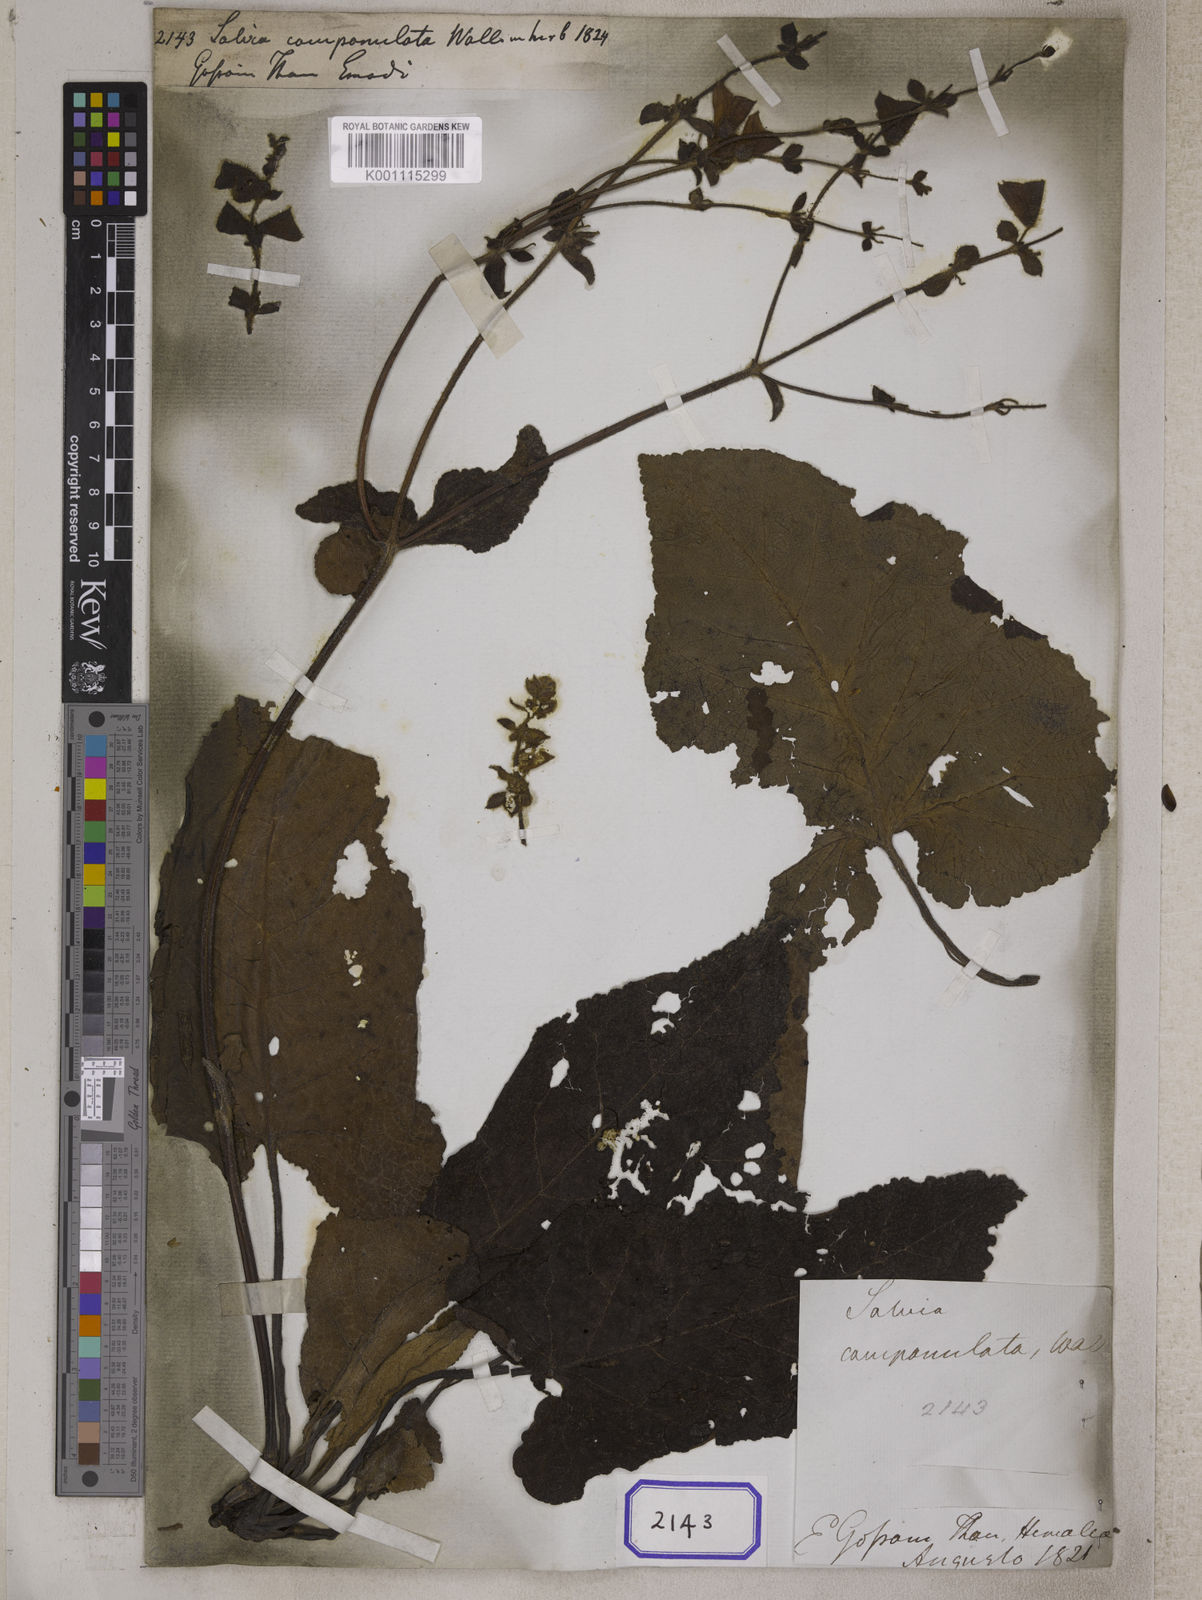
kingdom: Plantae
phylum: Tracheophyta
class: Magnoliopsida
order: Lamiales
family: Lamiaceae
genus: Salvia
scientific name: Salvia campanulata
